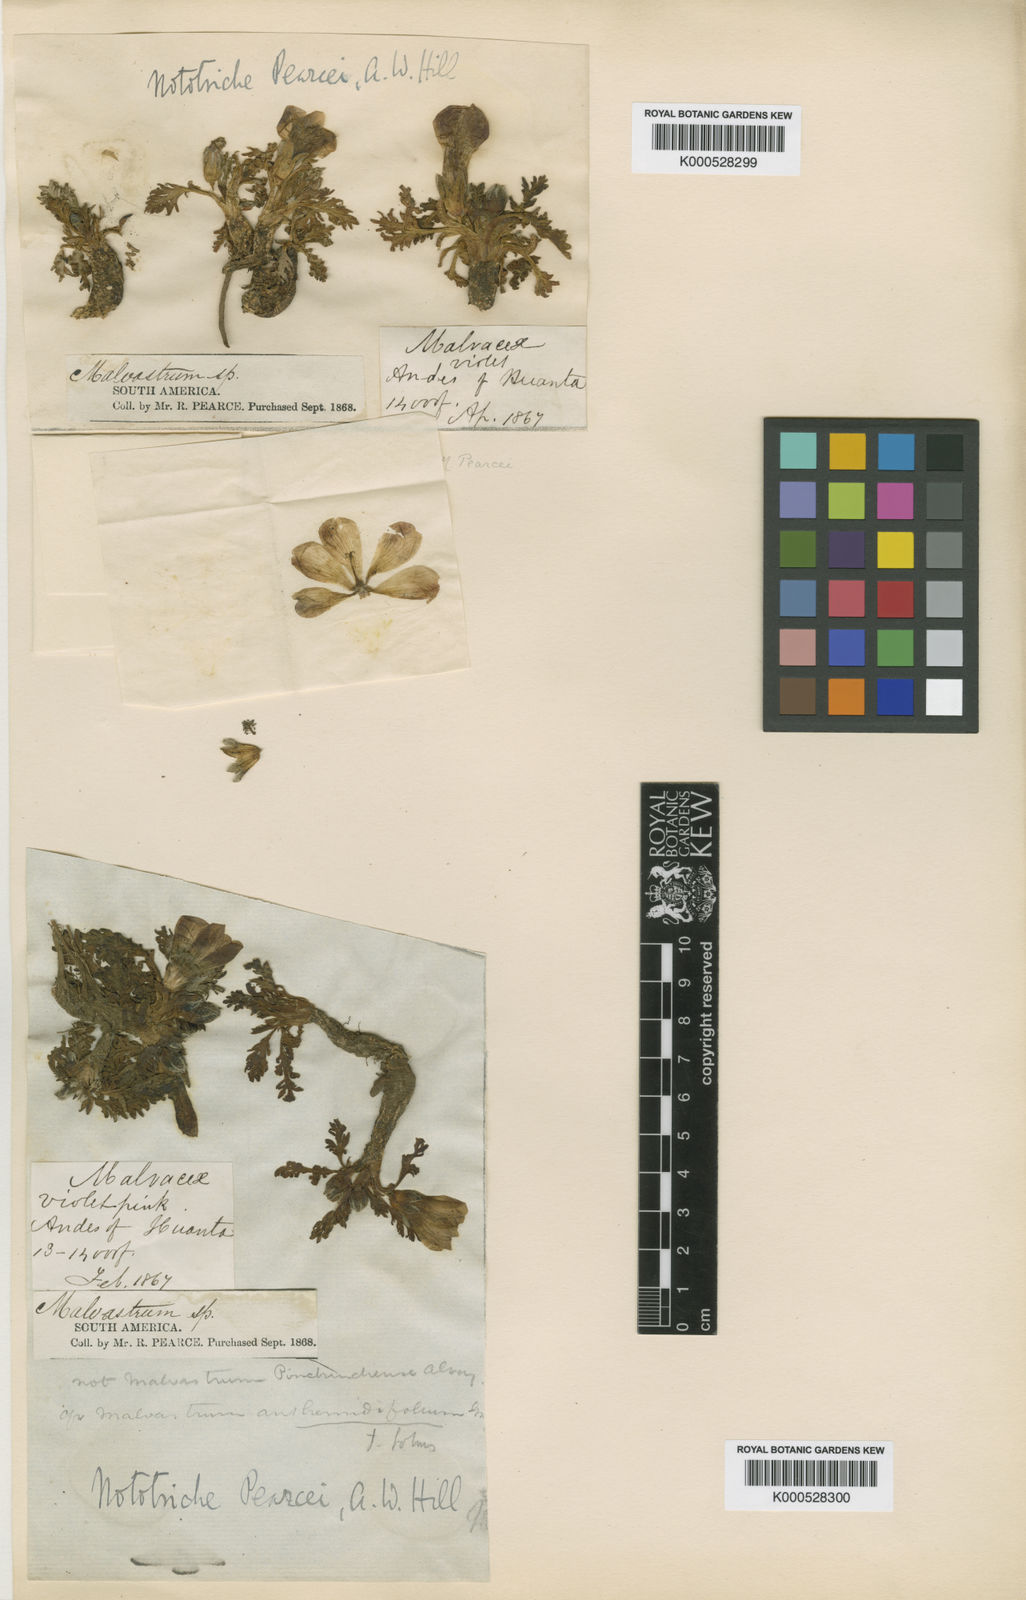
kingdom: Plantae
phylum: Tracheophyta
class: Magnoliopsida
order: Malvales
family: Malvaceae
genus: Nototriche
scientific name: Nototriche pearcei
